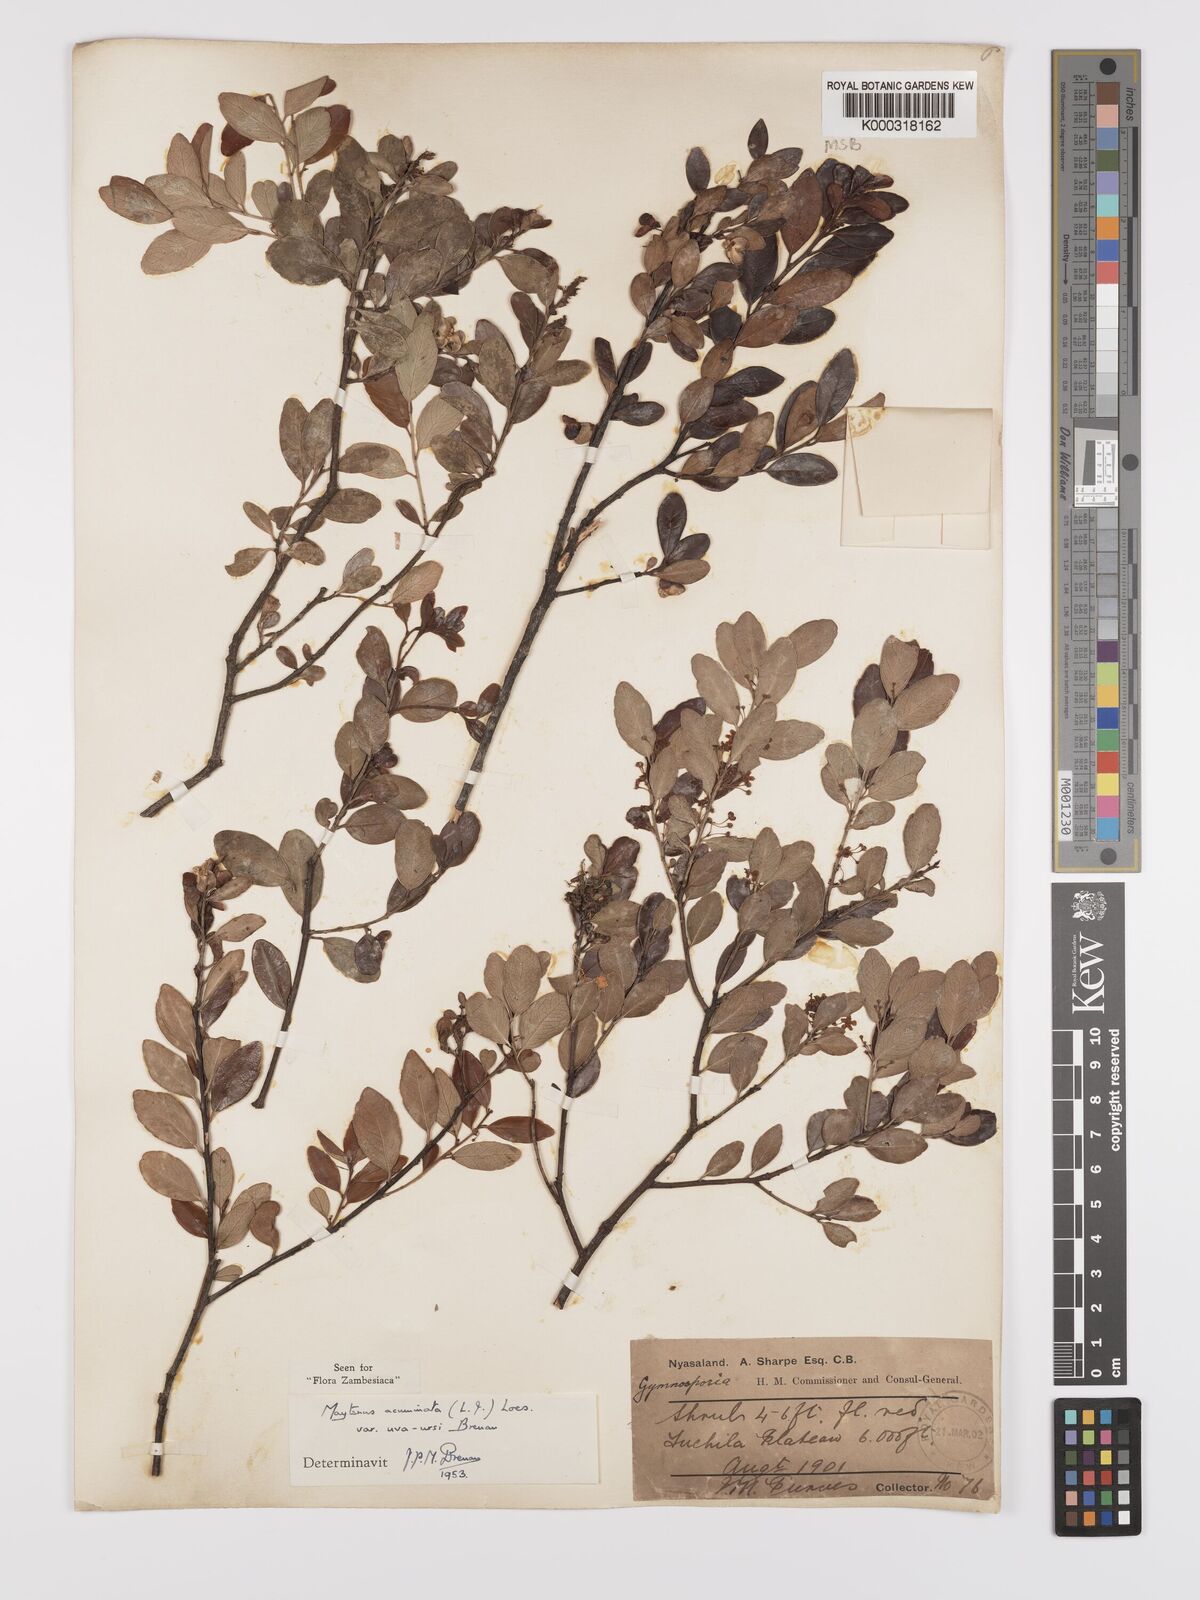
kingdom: Plantae
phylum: Tracheophyta
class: Magnoliopsida
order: Celastrales
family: Celastraceae
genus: Maytenus
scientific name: Maytenus
